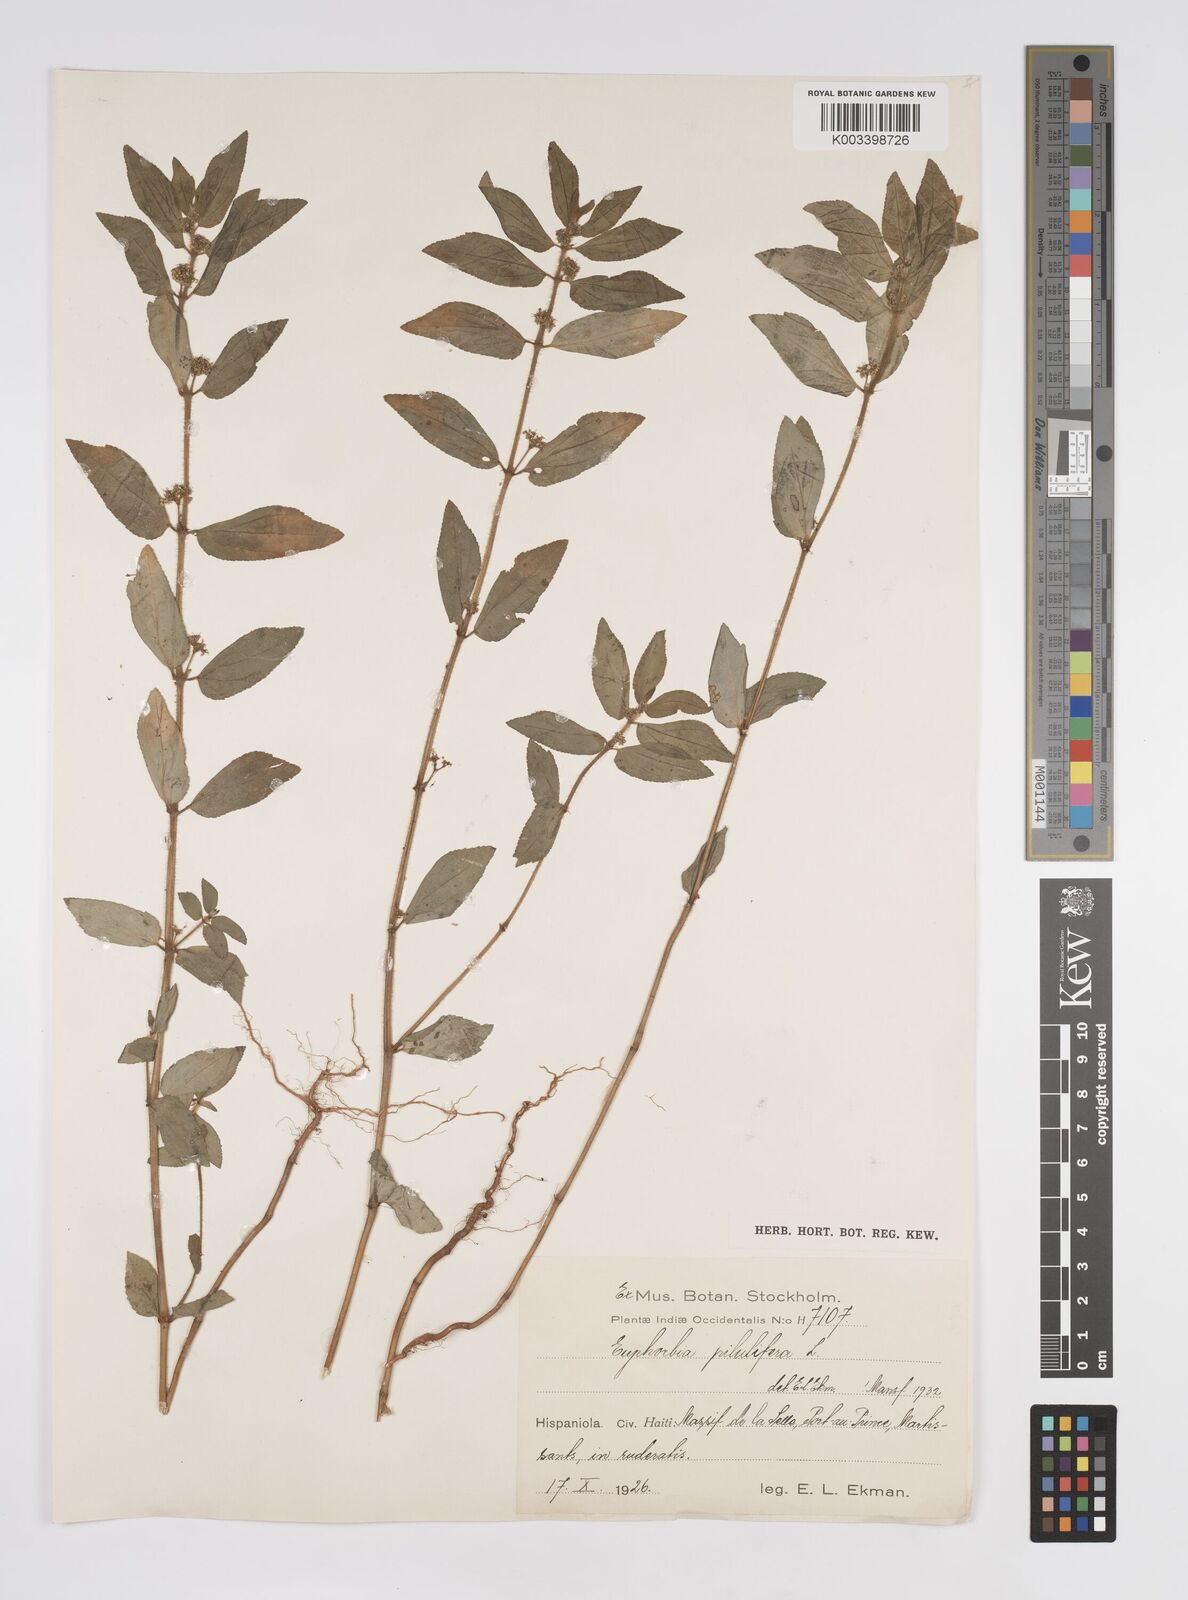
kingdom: Plantae
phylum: Tracheophyta
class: Magnoliopsida
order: Malpighiales
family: Euphorbiaceae
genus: Euphorbia
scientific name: Euphorbia hirta
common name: Pillpod sandmat
